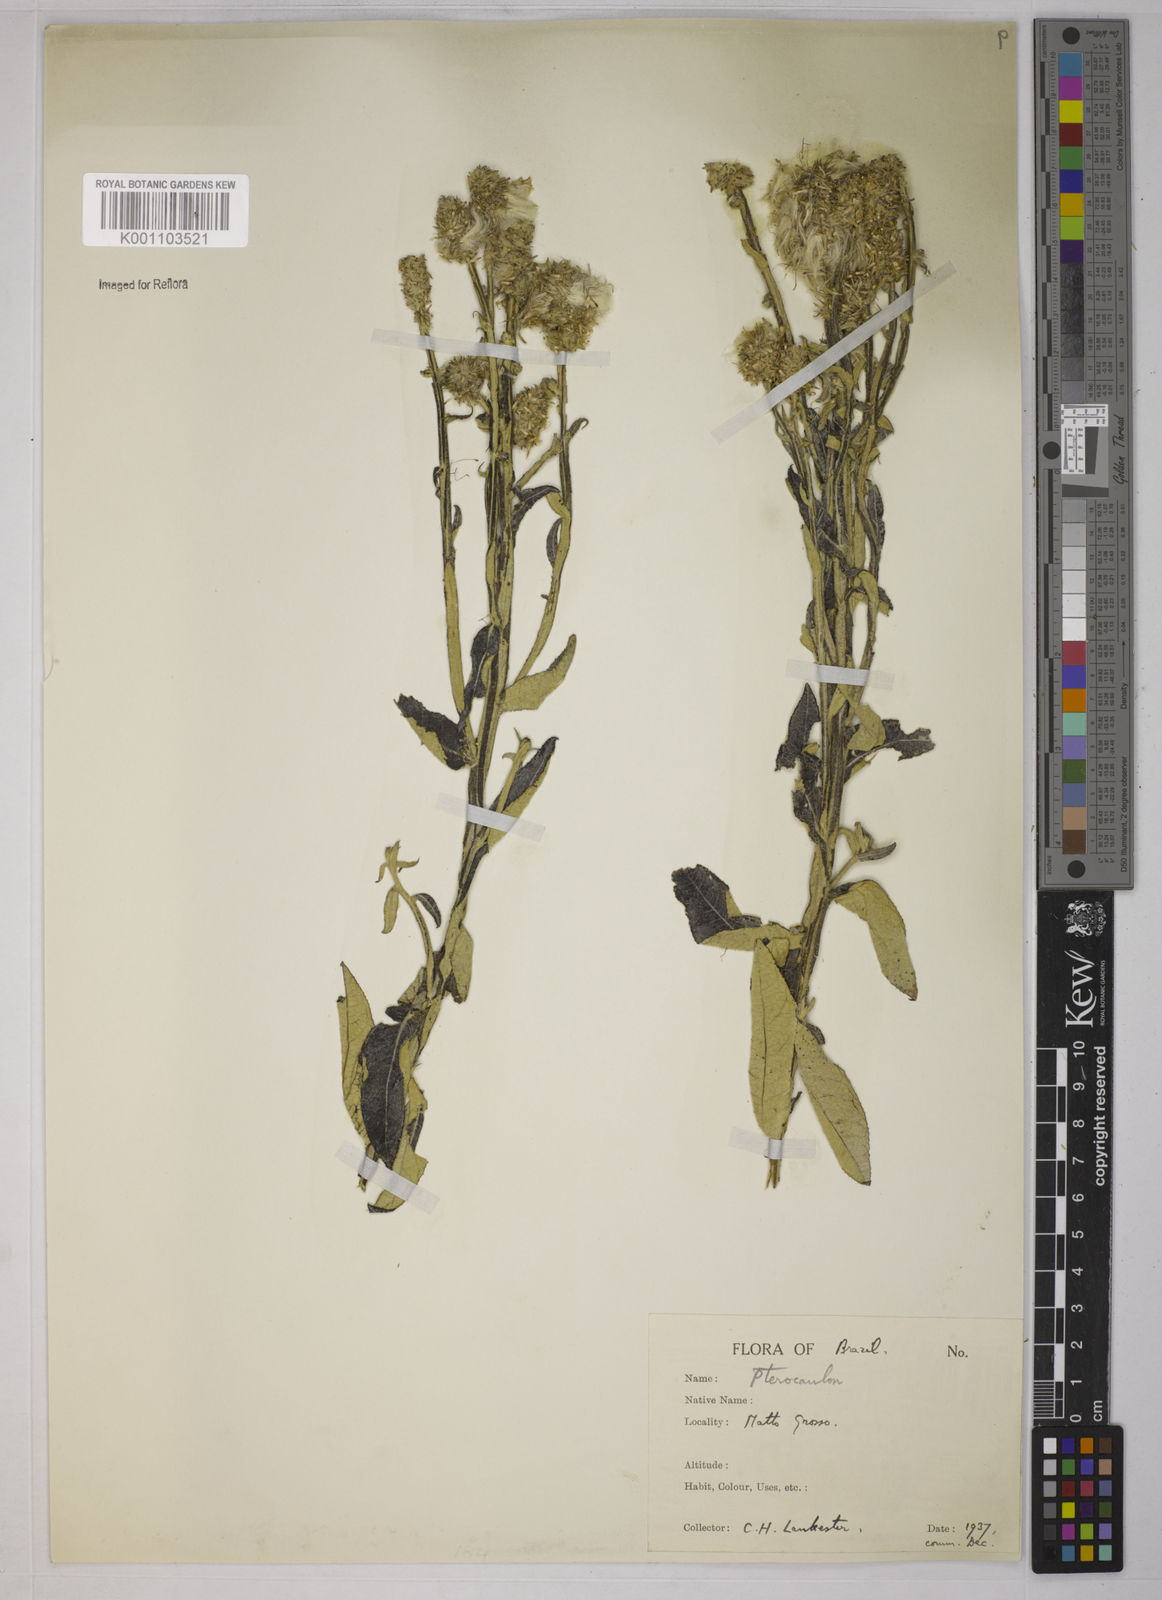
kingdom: Plantae
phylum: Tracheophyta
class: Magnoliopsida
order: Asterales
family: Asteraceae
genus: Pterocaulon
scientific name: Pterocaulon
